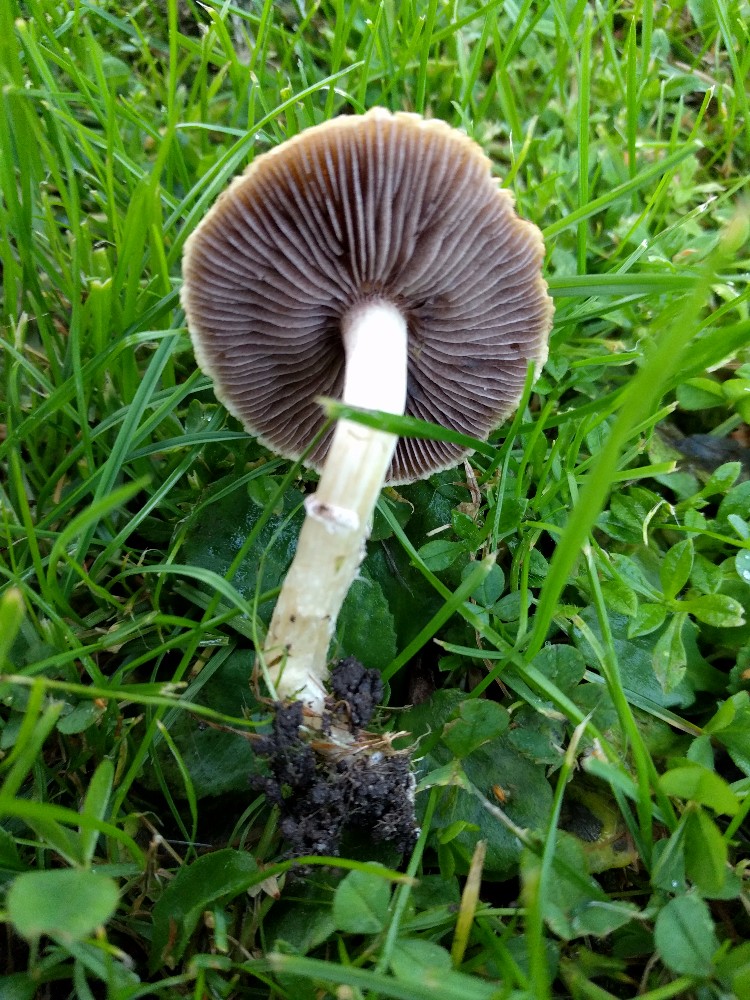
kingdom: Fungi
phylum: Basidiomycota
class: Agaricomycetes
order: Agaricales
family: Hymenogastraceae
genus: Psilocybe
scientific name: Psilocybe coronilla
